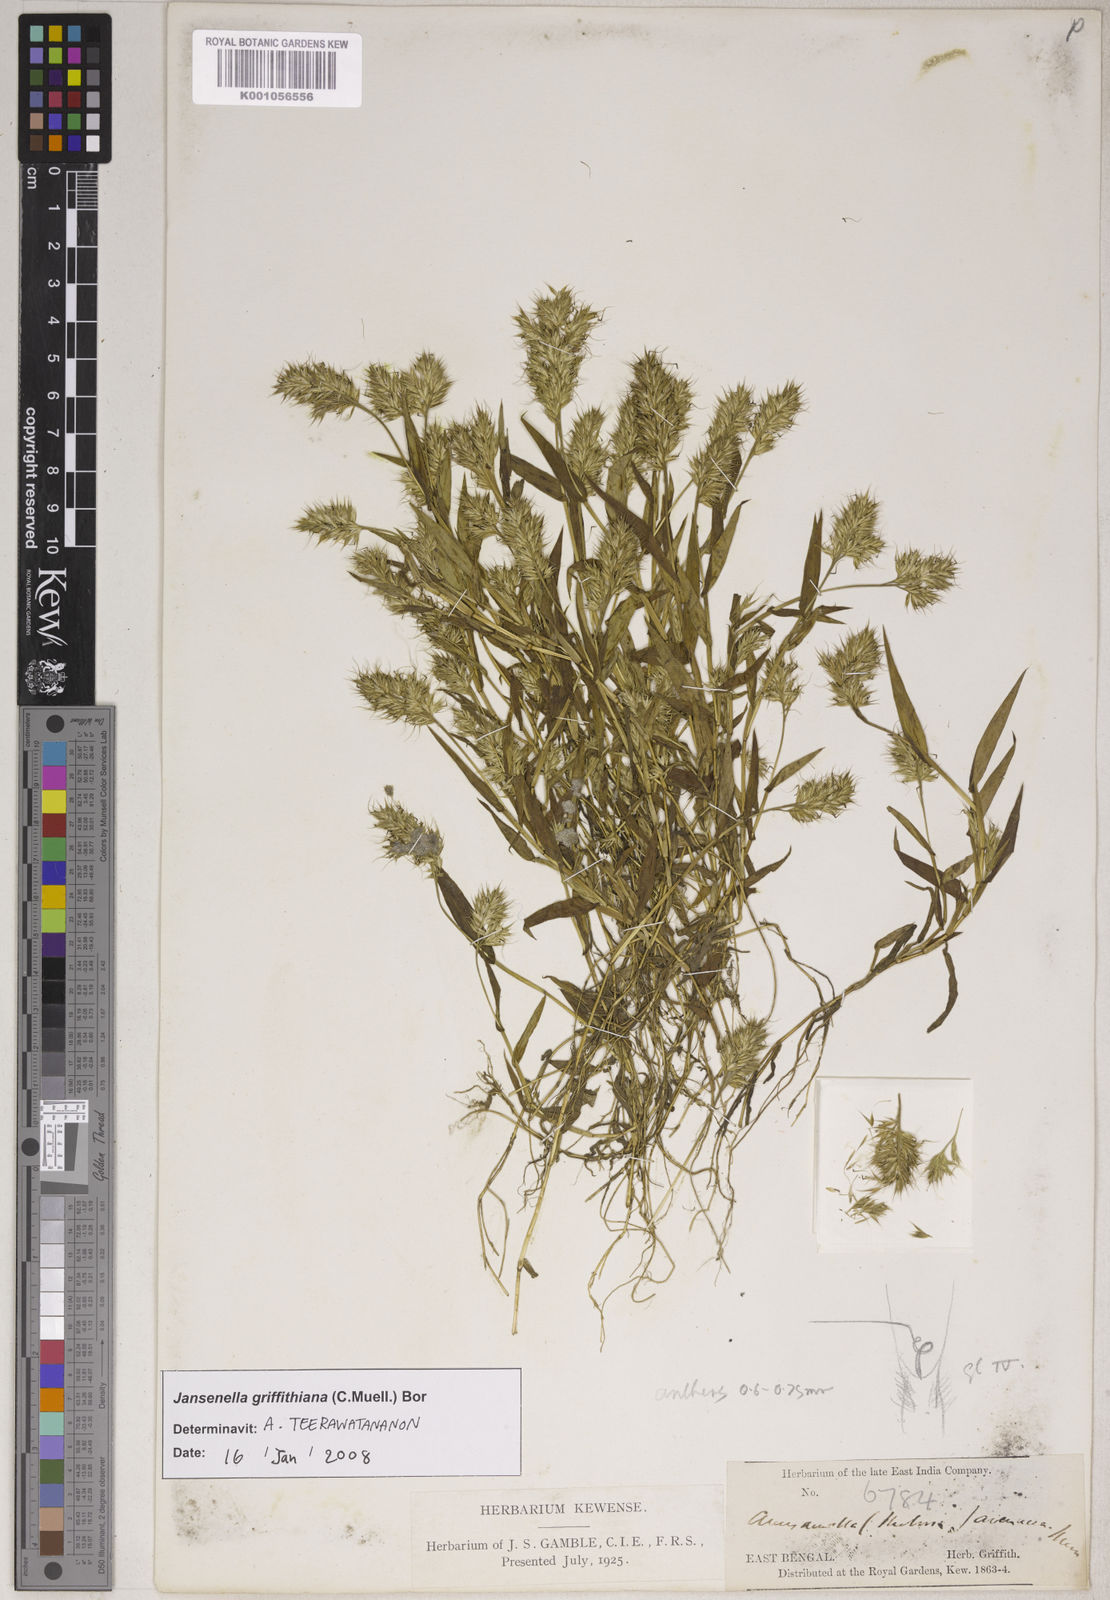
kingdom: Plantae
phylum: Tracheophyta
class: Liliopsida
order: Poales
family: Poaceae
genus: Jansenella
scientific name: Jansenella griffithiana
